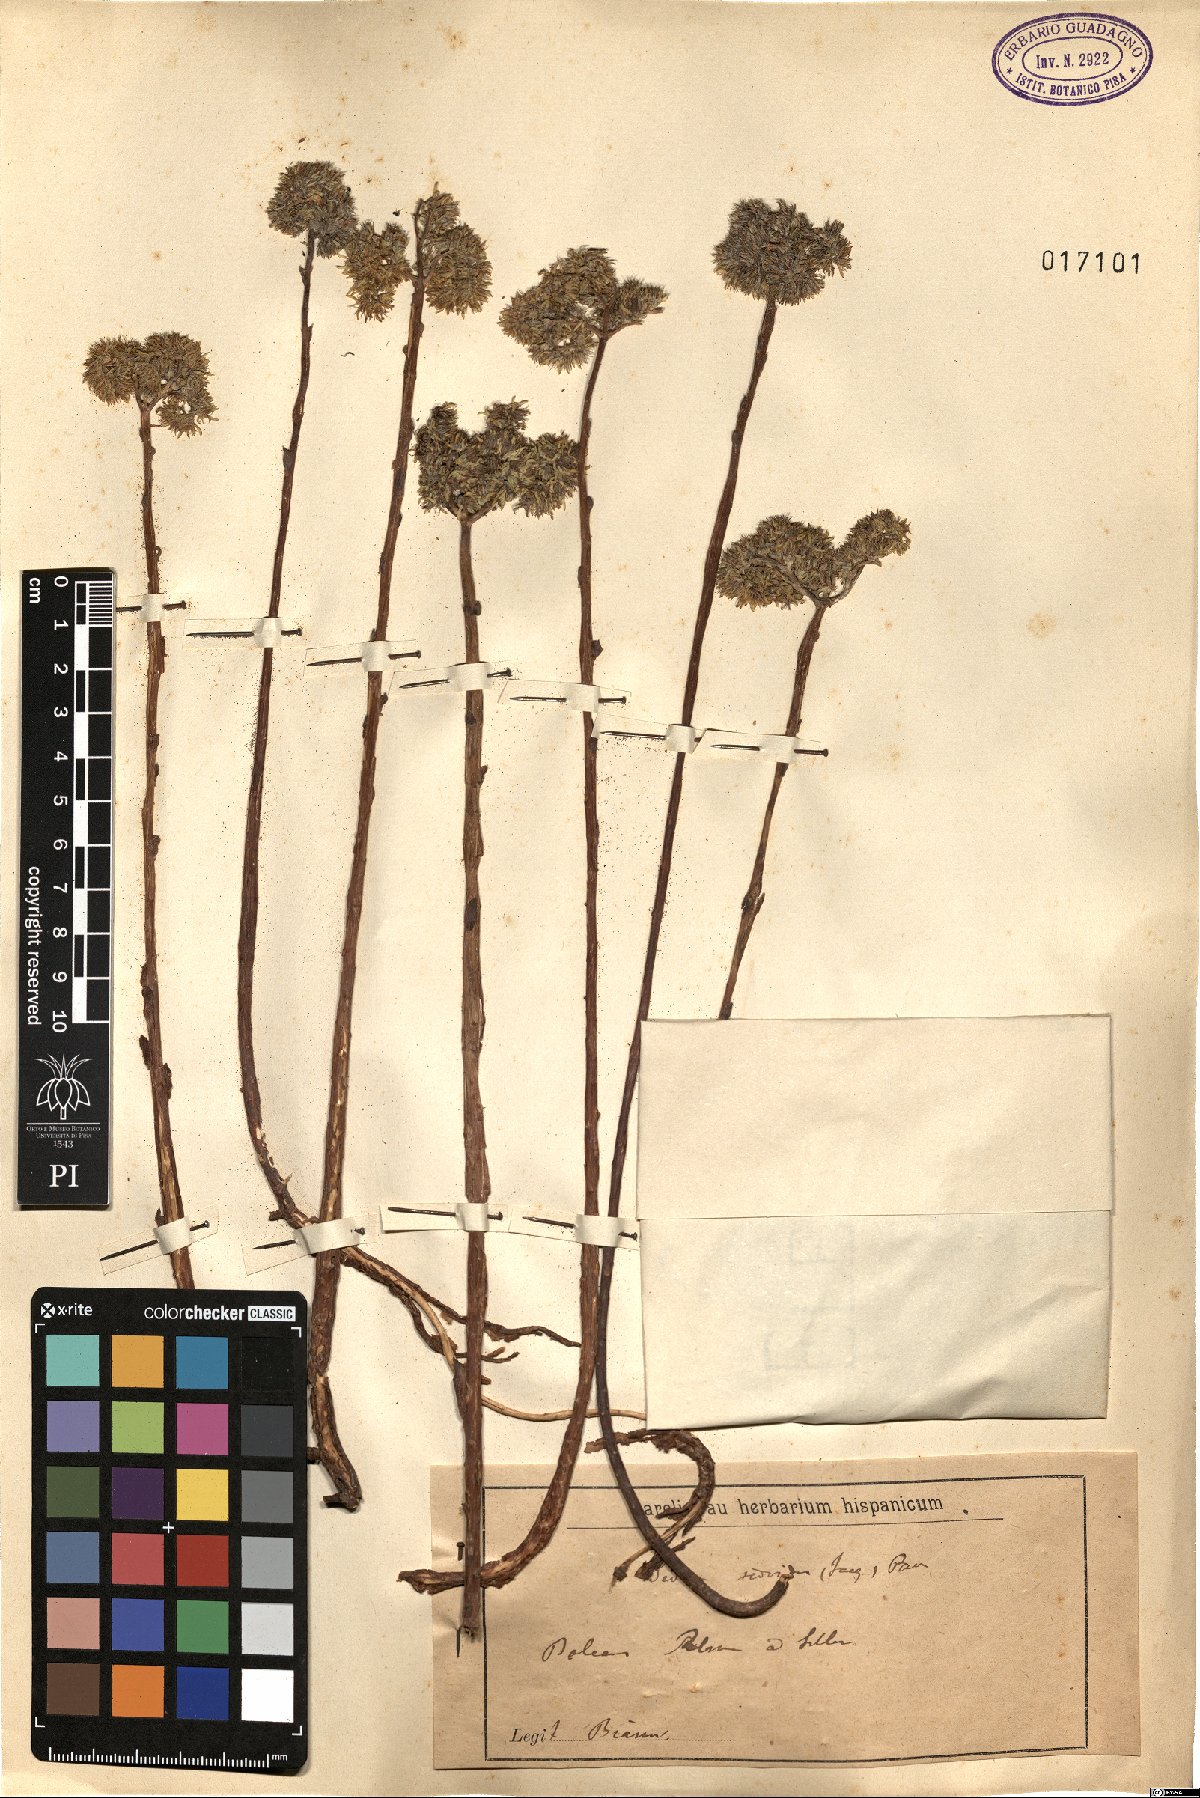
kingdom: Plantae
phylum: Tracheophyta
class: Magnoliopsida
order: Saxifragales
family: Crassulaceae
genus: Petrosedum
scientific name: Petrosedum sediforme
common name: Pale stonecrop
